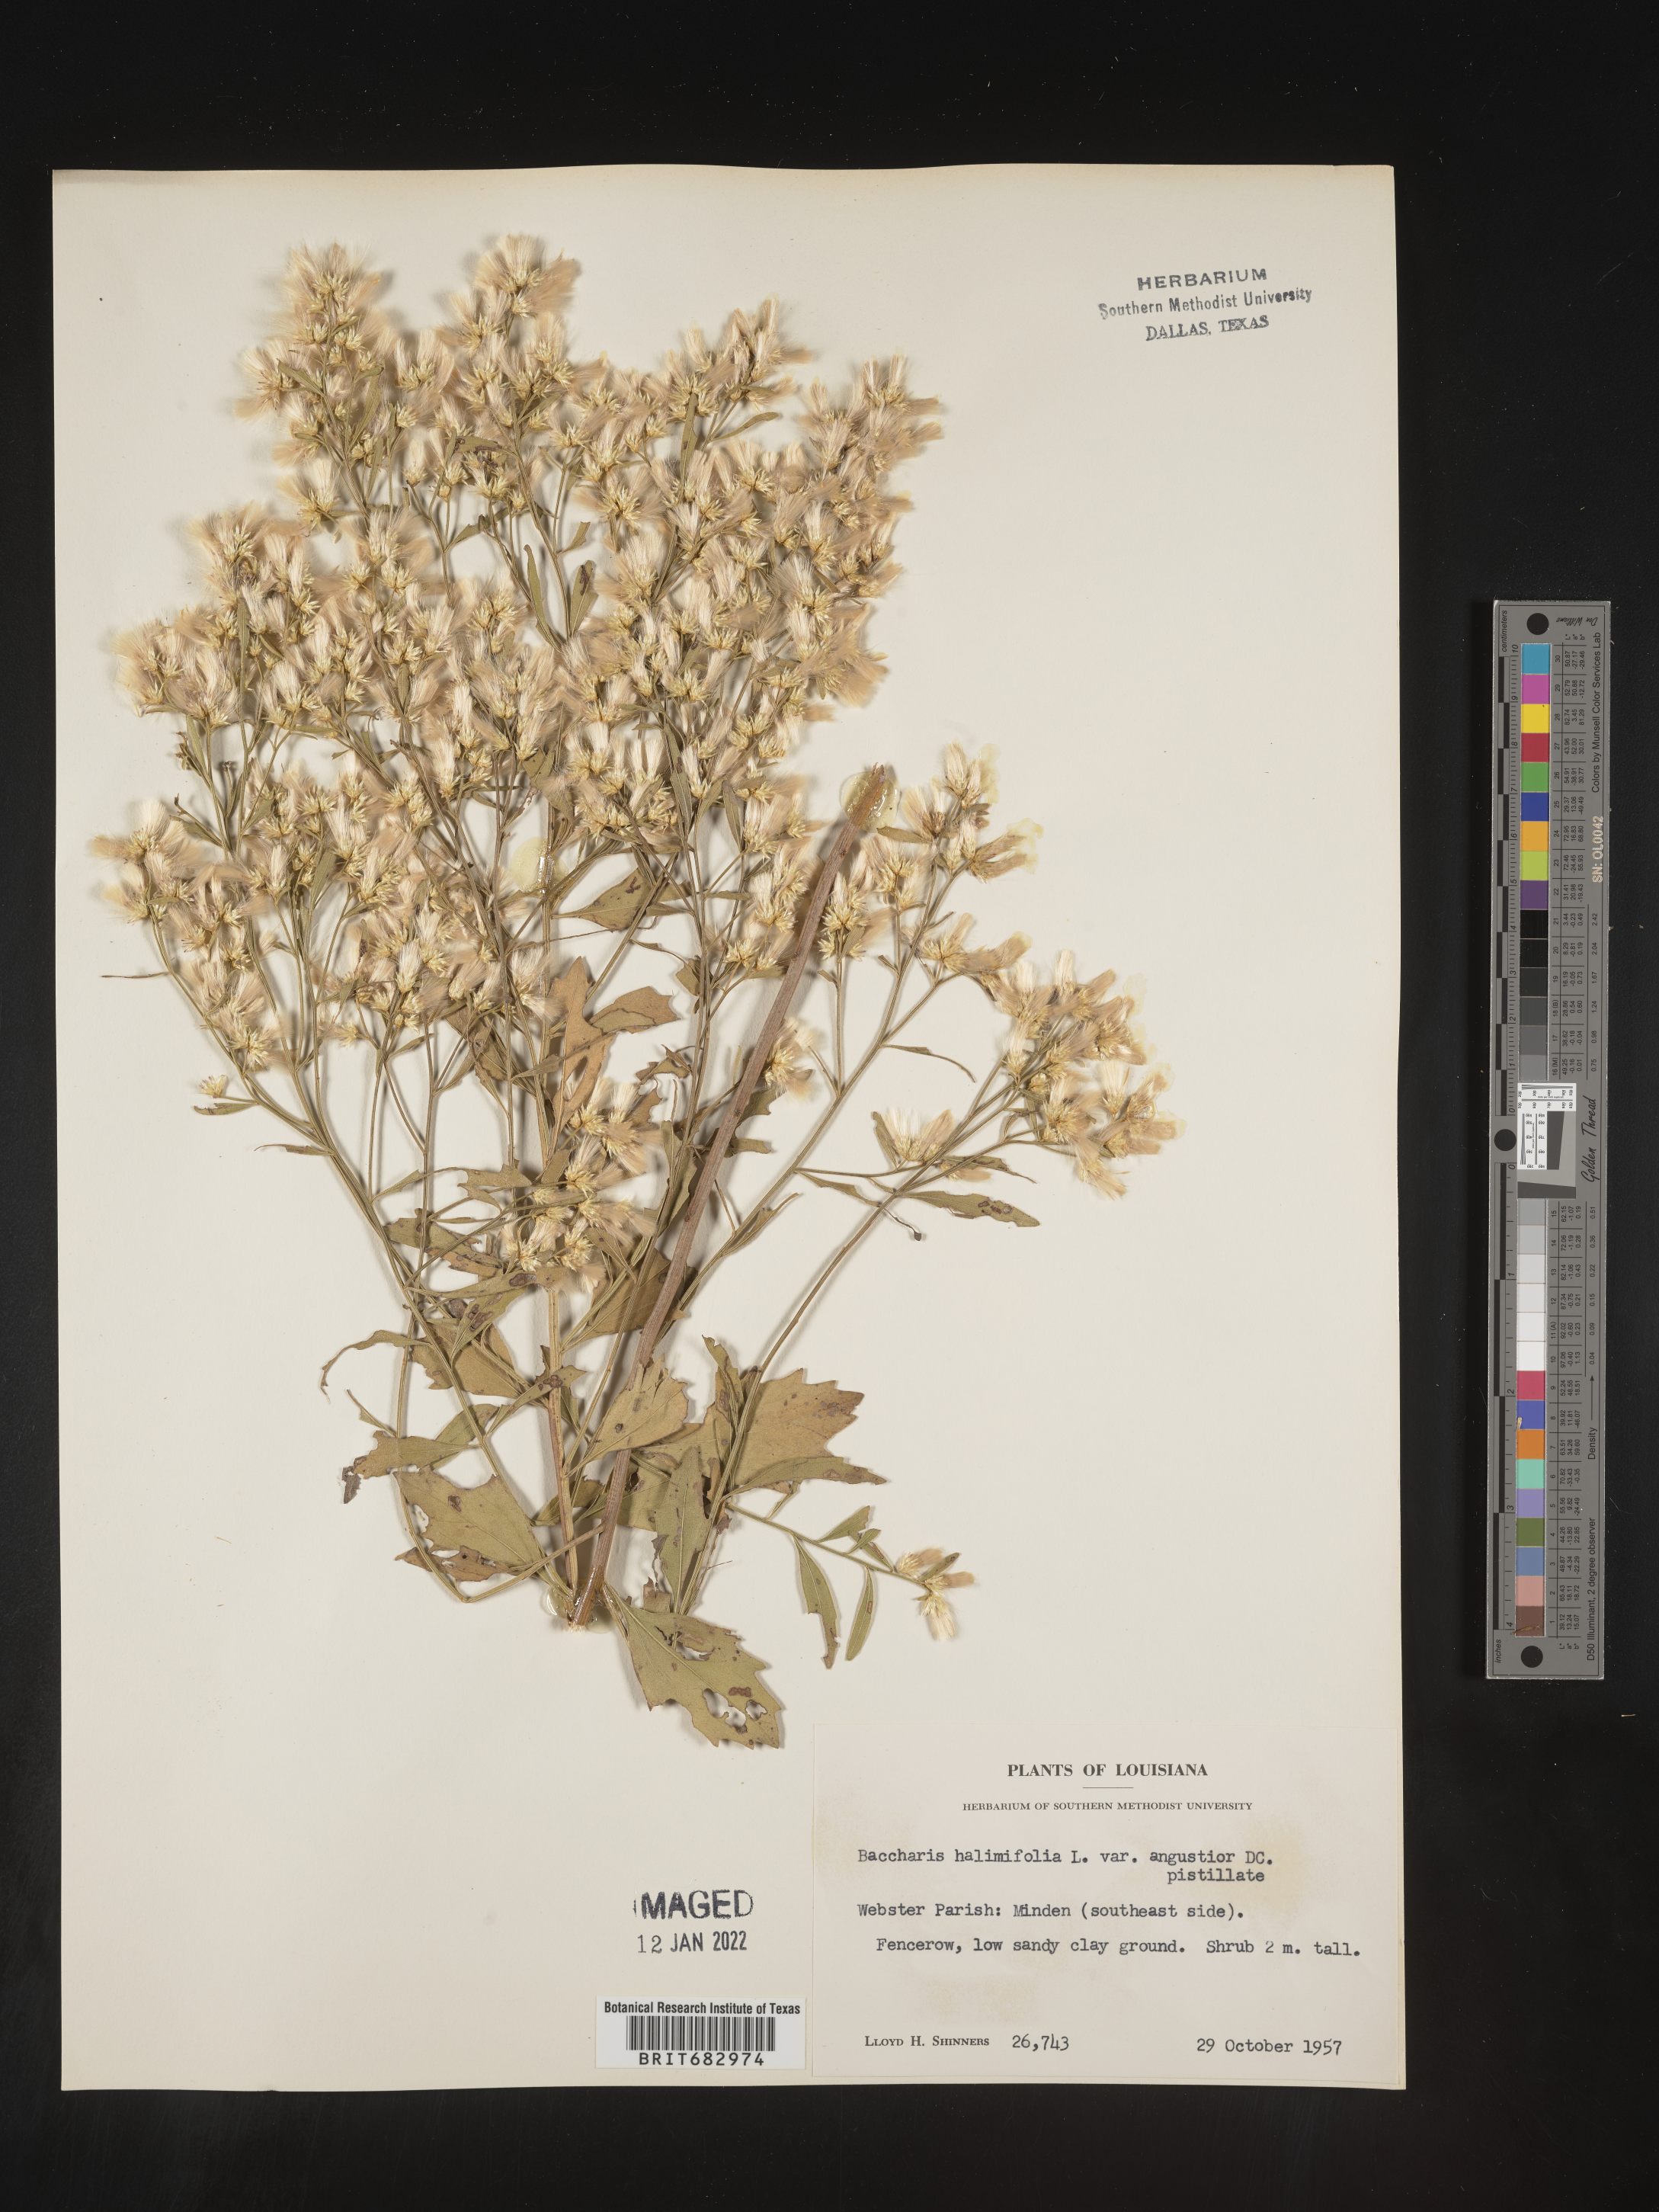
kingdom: Plantae
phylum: Tracheophyta
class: Magnoliopsida
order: Asterales
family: Asteraceae
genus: Nidorella
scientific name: Nidorella ivifolia
